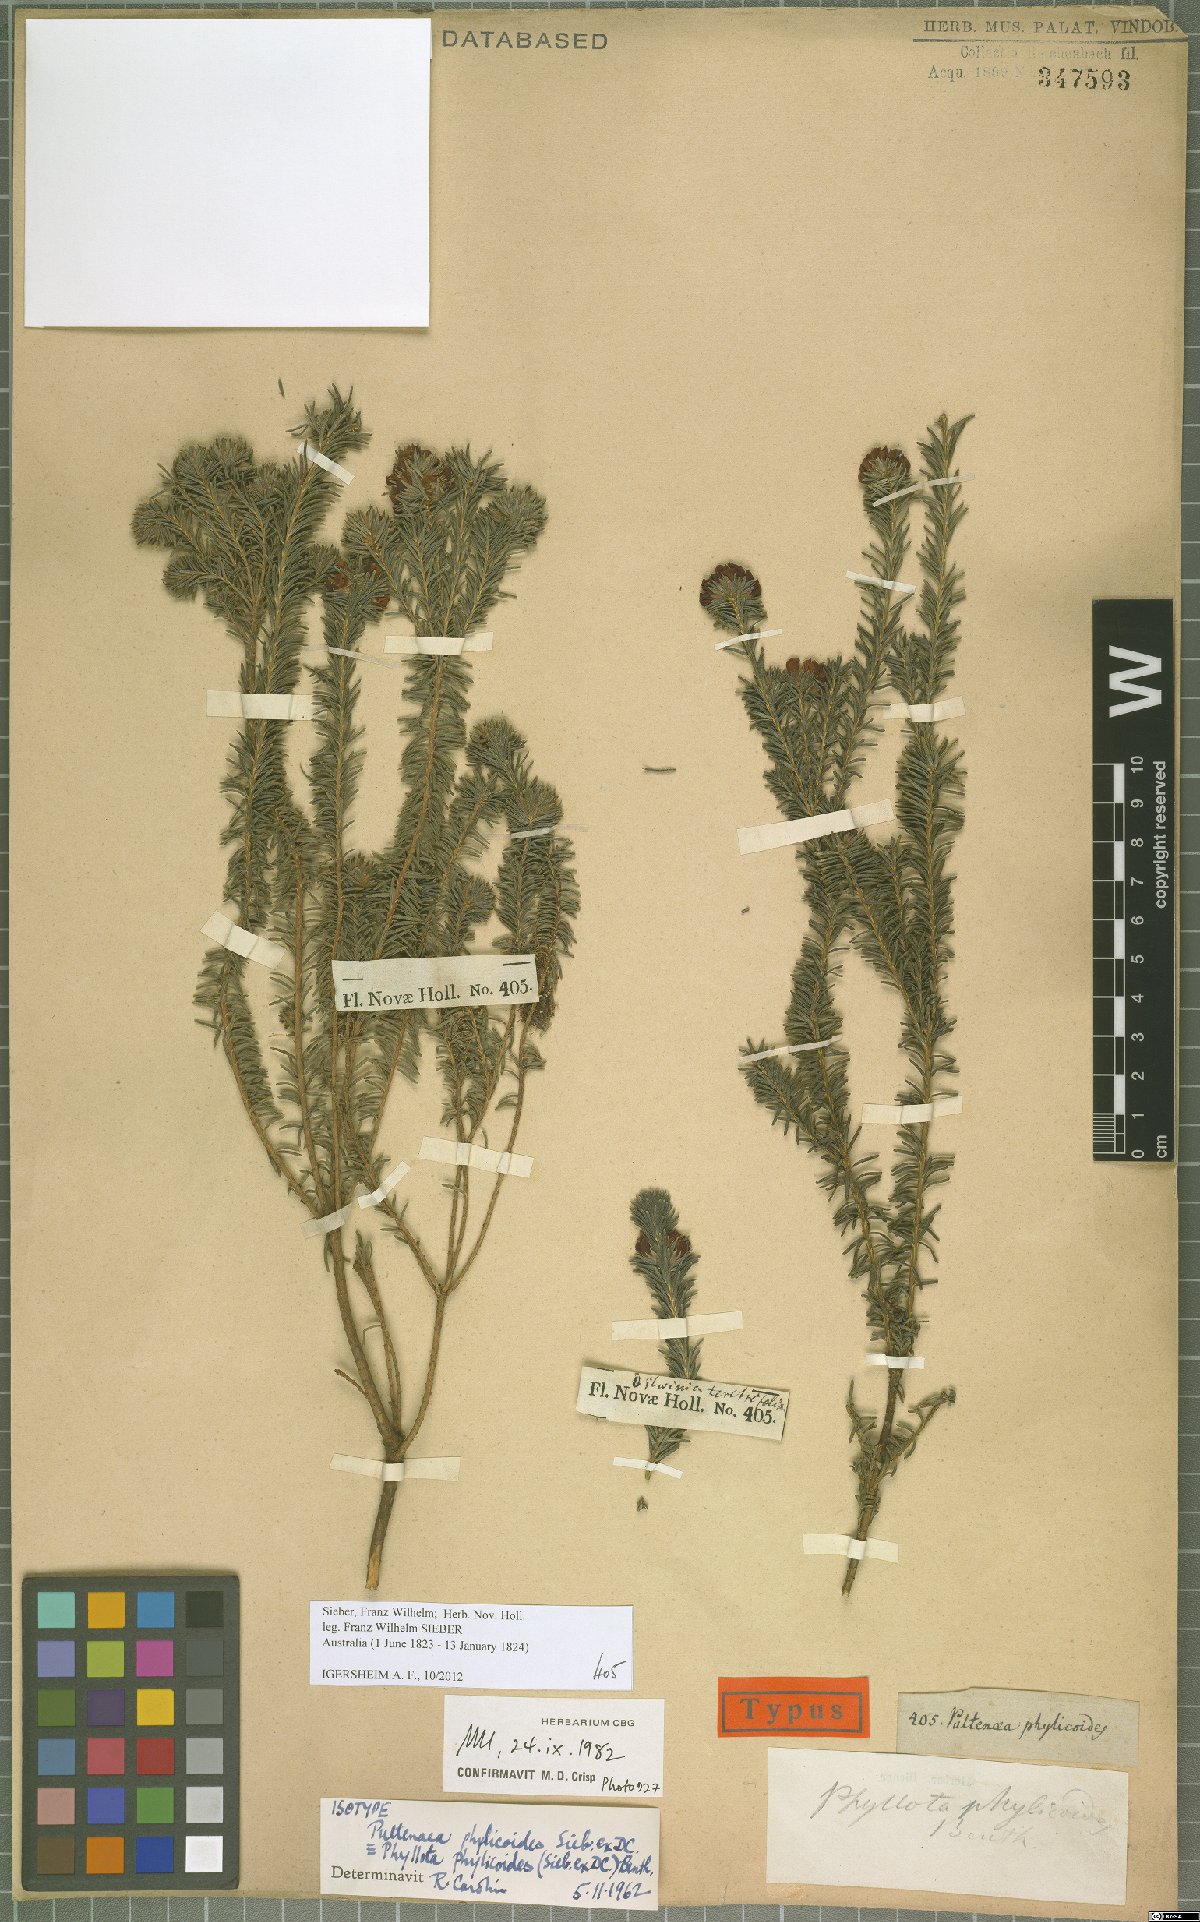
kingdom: Plantae
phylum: Tracheophyta
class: Magnoliopsida
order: Fabales
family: Fabaceae
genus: Phyllota
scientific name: Phyllota phylicoides
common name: Heath phyllota
